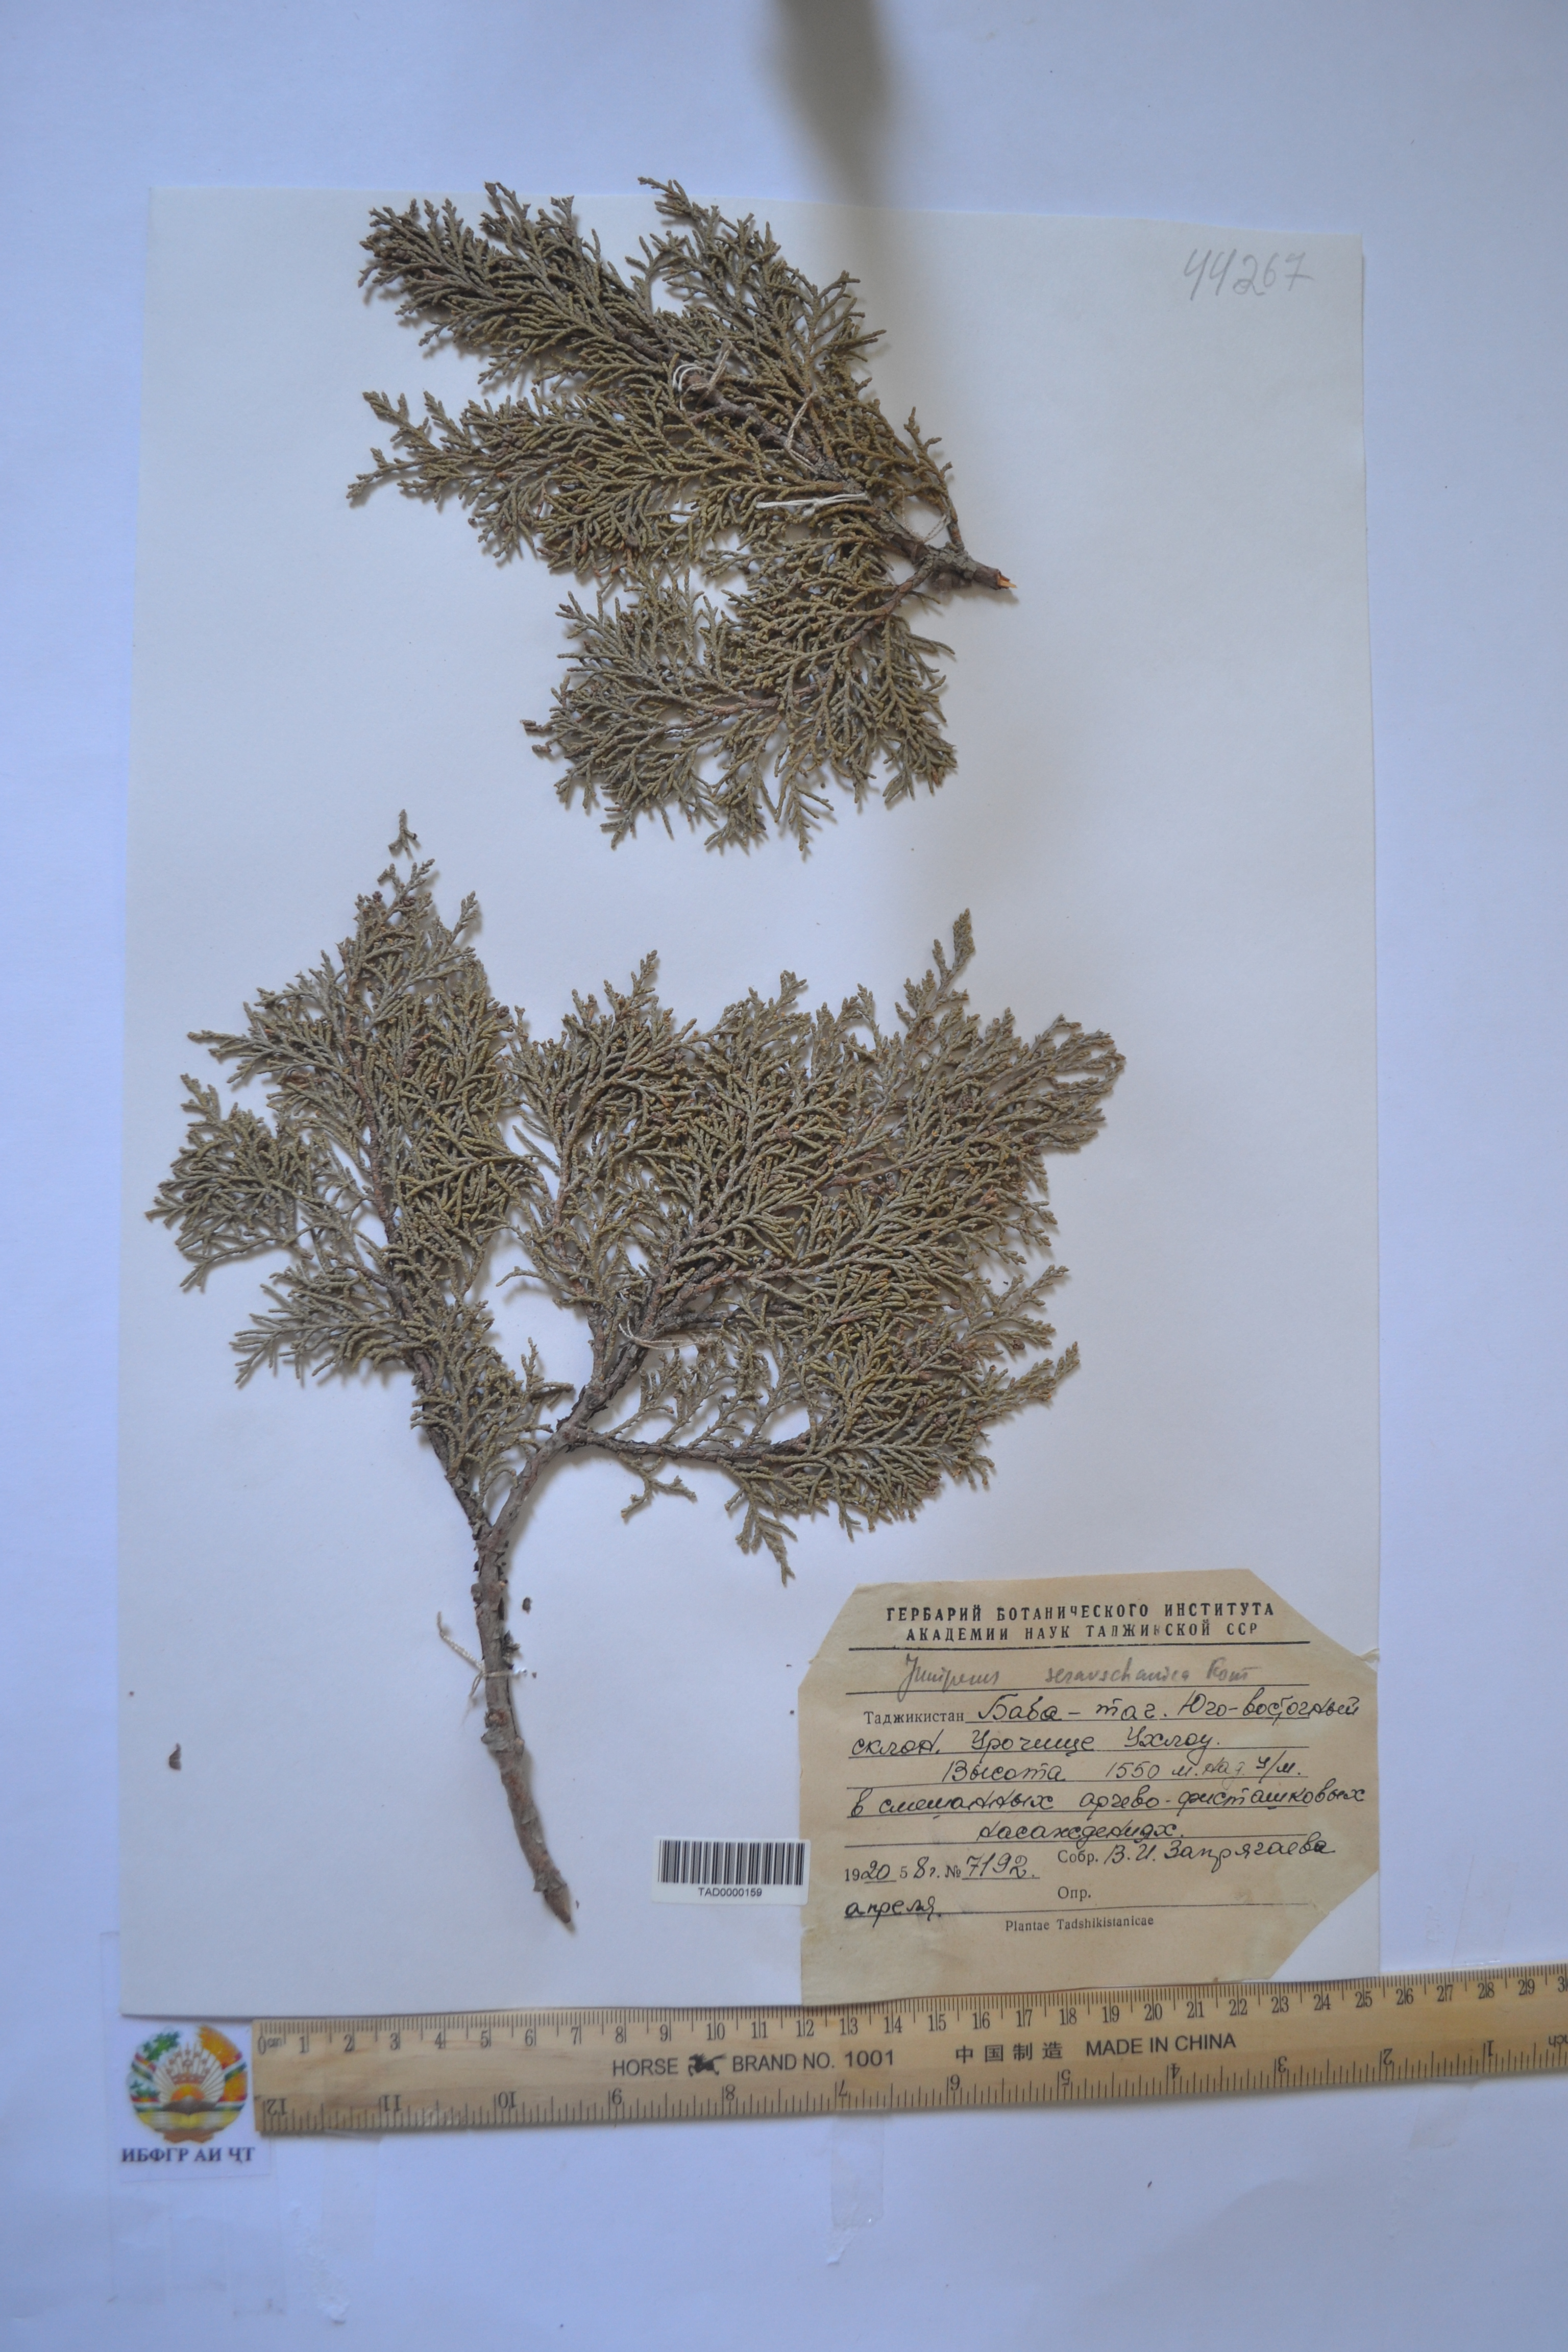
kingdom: Plantae
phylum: Tracheophyta
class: Pinopsida
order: Pinales
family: Cupressaceae
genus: Juniperus
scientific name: Juniperus excelsa
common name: Crimean juniper
